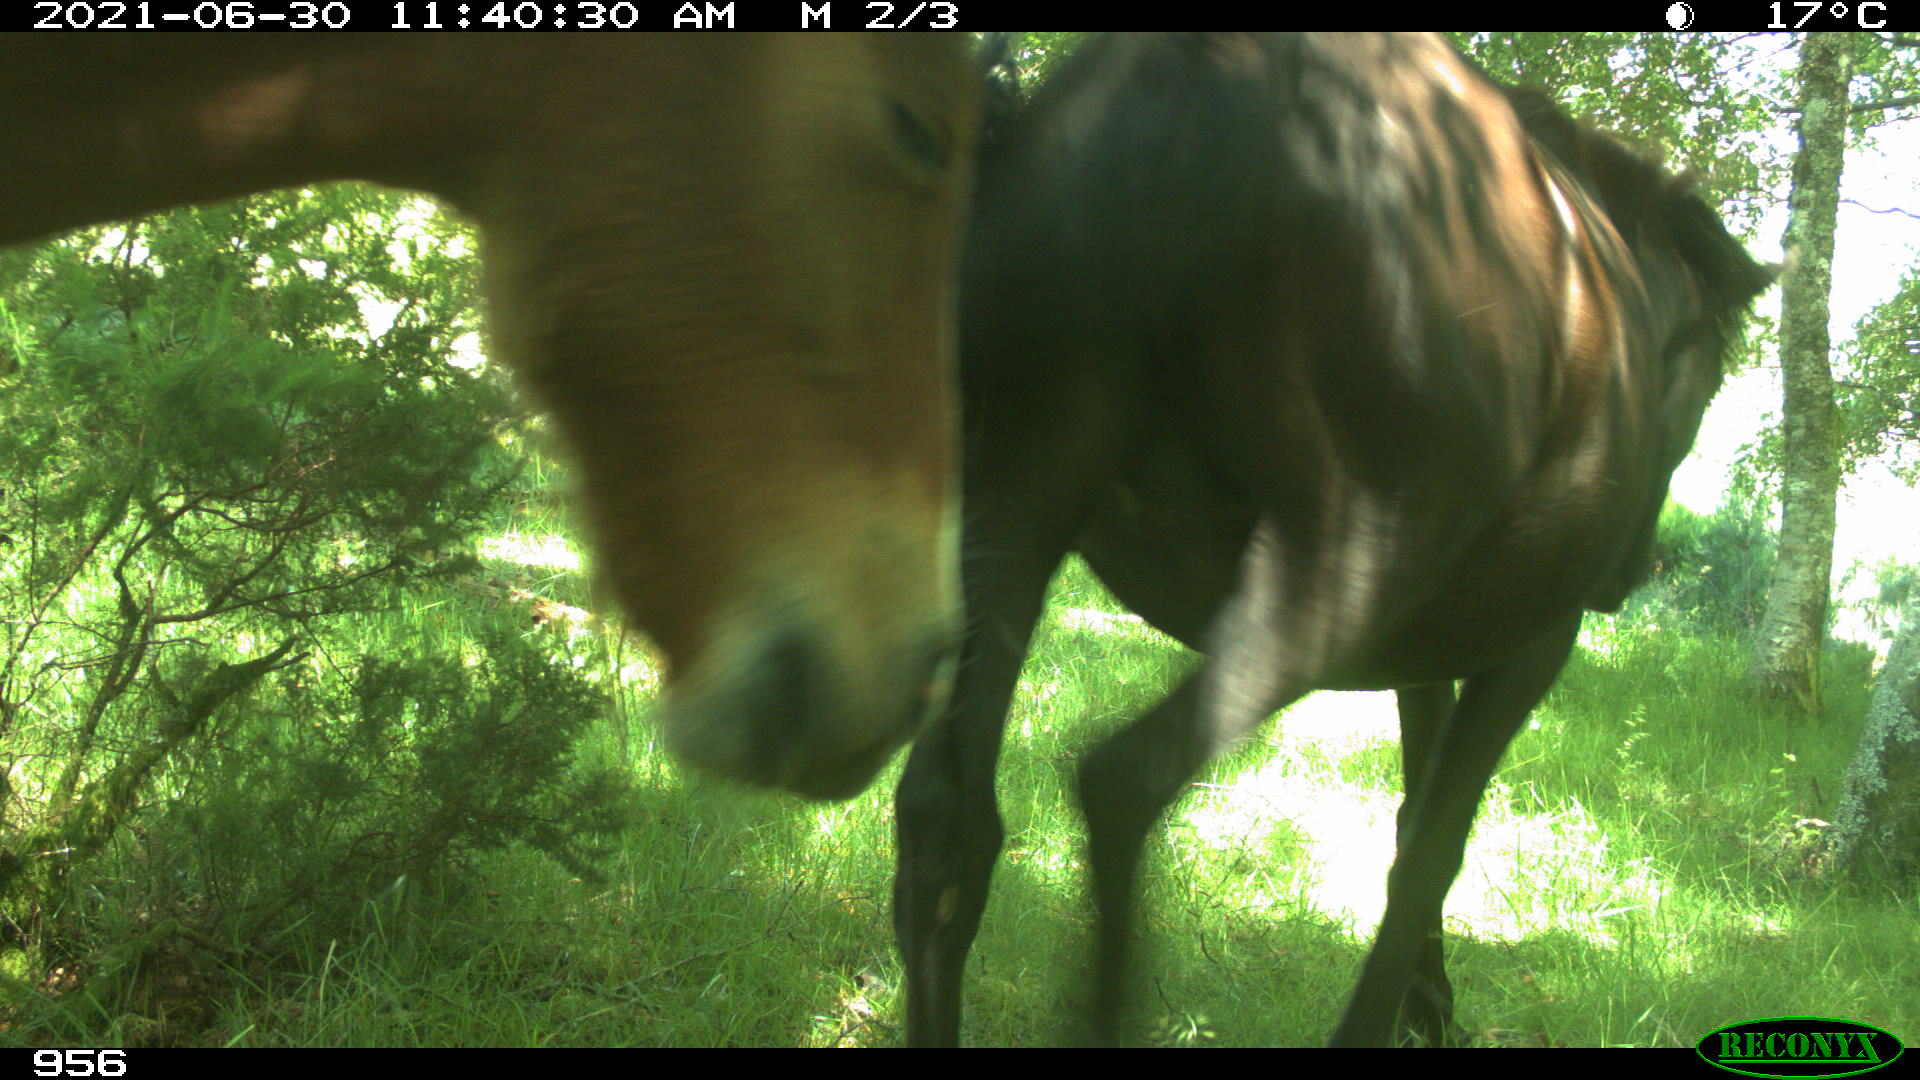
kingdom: Animalia
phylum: Chordata
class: Mammalia
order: Perissodactyla
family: Equidae
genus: Equus
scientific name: Equus caballus
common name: Horse
